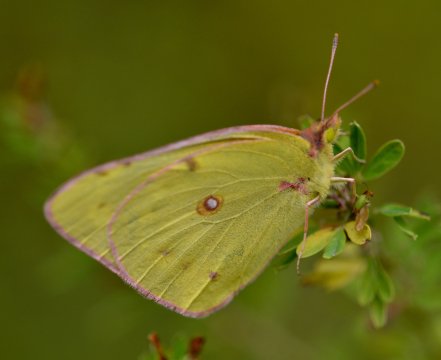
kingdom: Animalia
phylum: Arthropoda
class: Insecta
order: Lepidoptera
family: Pieridae
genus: Colias
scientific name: Colias philodice
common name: Clouded Sulphur
